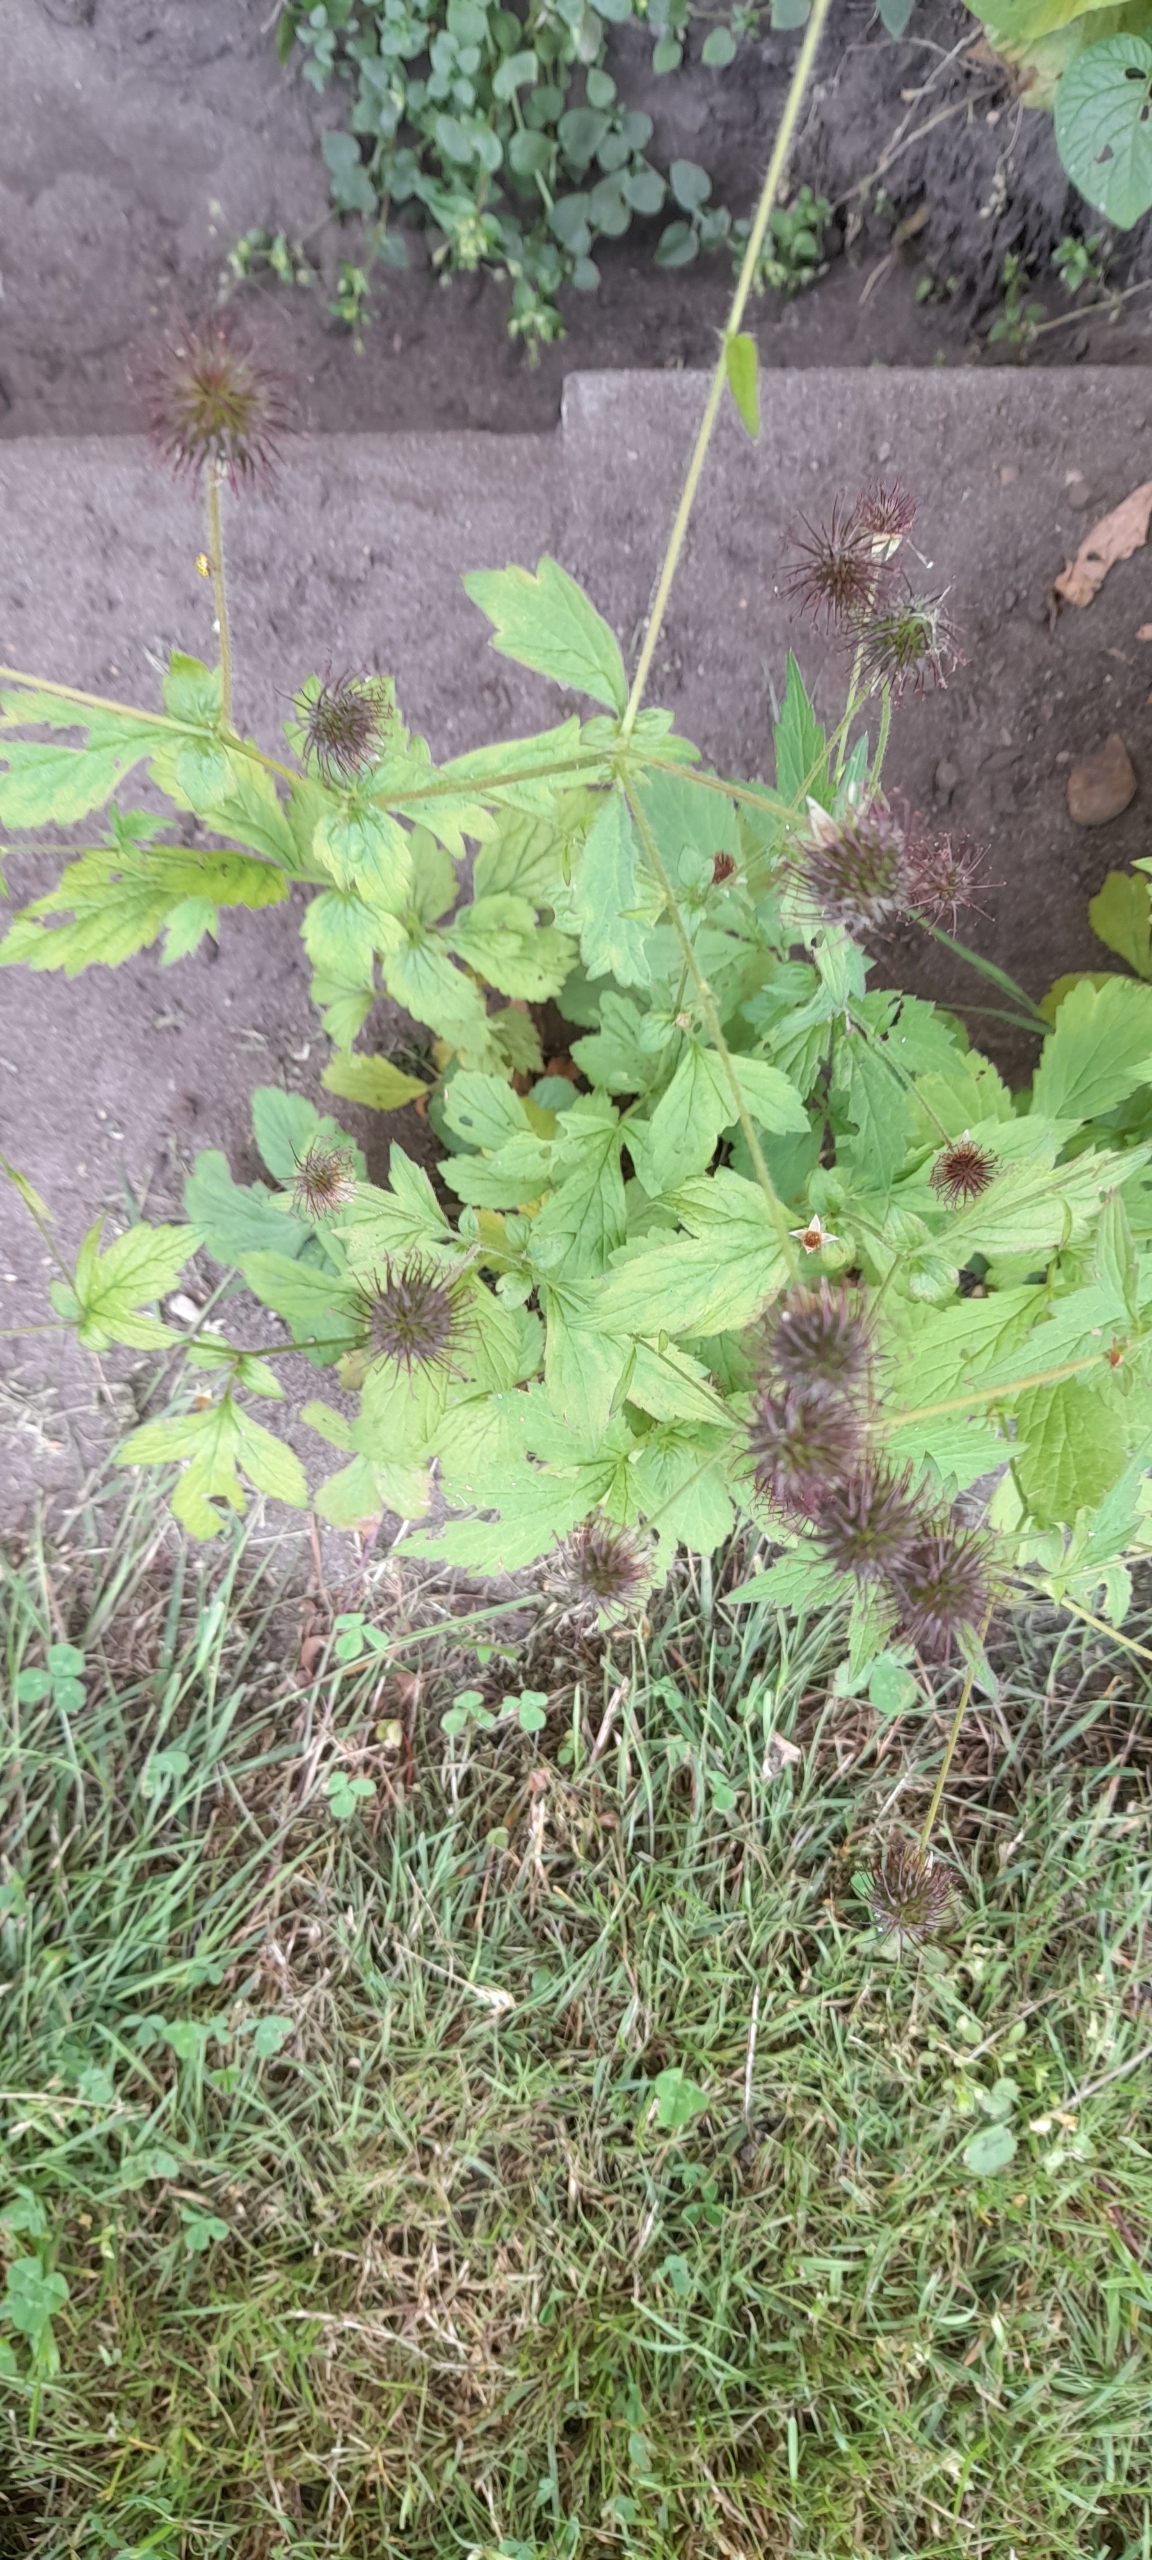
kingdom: Plantae
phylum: Tracheophyta
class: Magnoliopsida
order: Rosales
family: Rosaceae
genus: Geum
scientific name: Geum urbanum
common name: Feber-nellikerod
